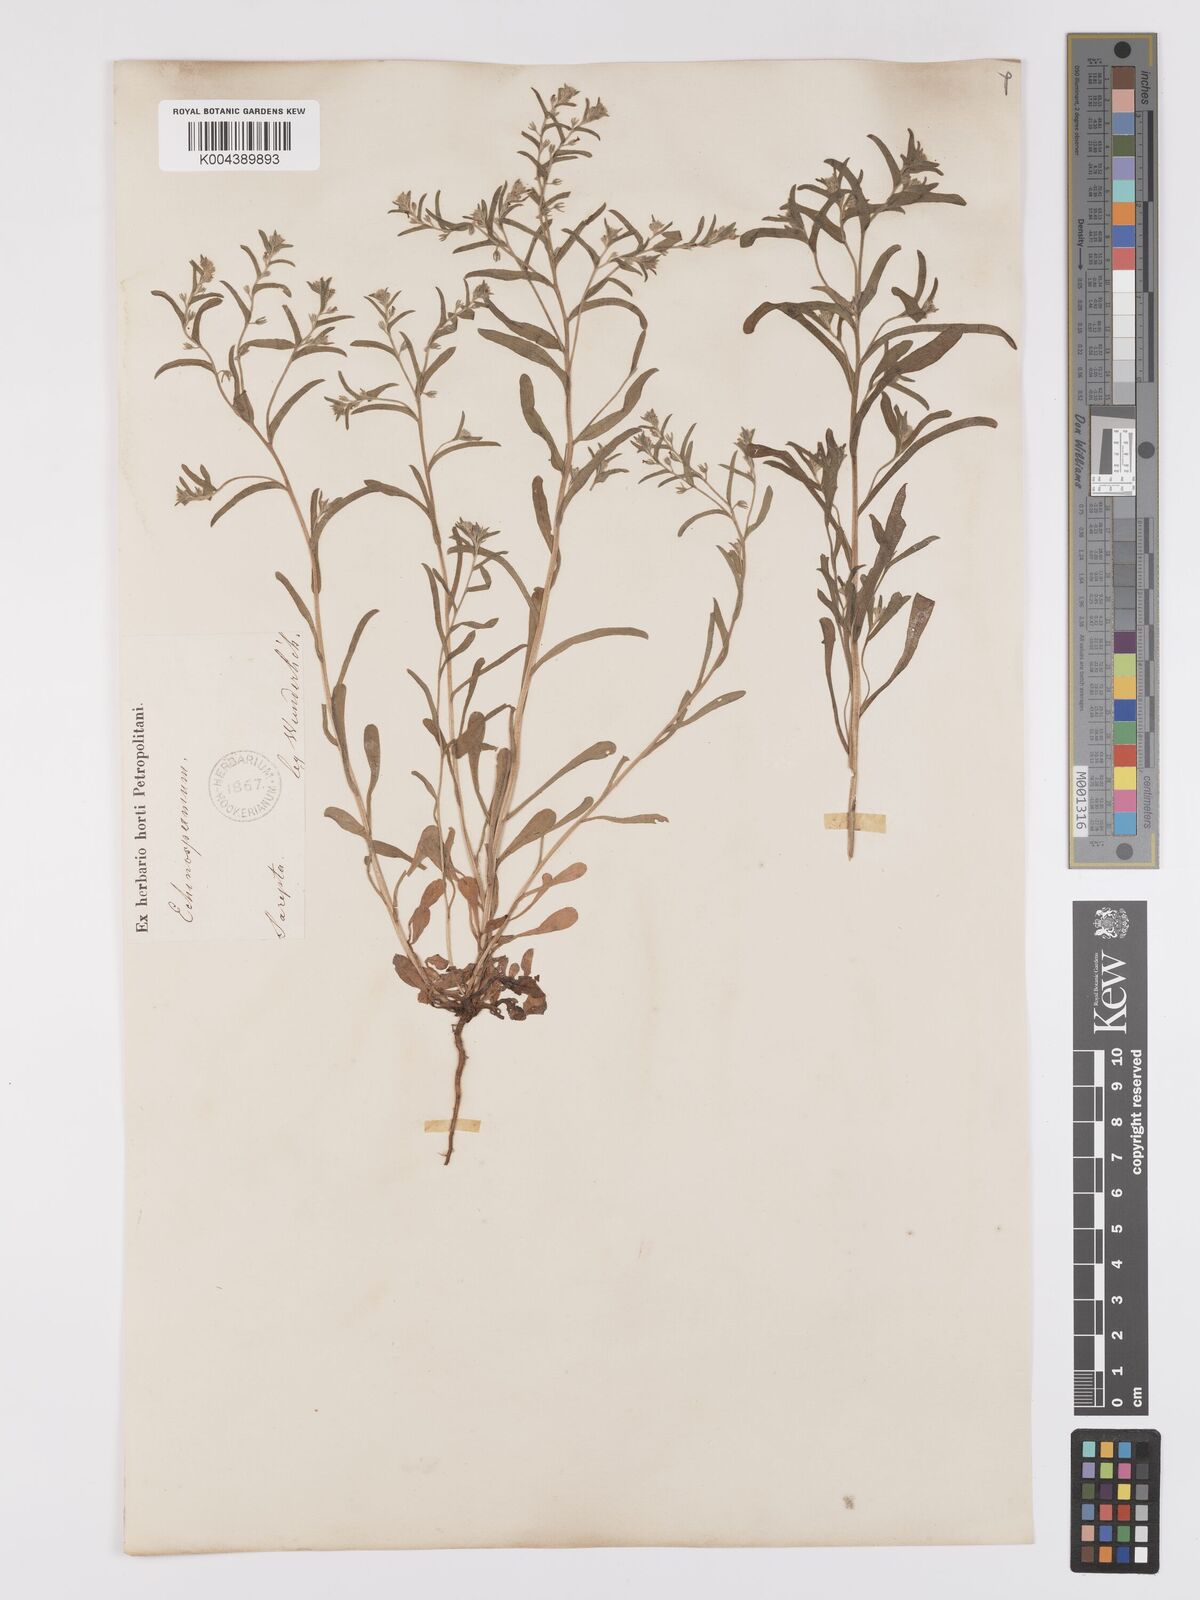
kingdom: Plantae
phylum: Tracheophyta
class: Magnoliopsida
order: Boraginales
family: Boraginaceae
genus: Lappula
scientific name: Lappula redowskii
